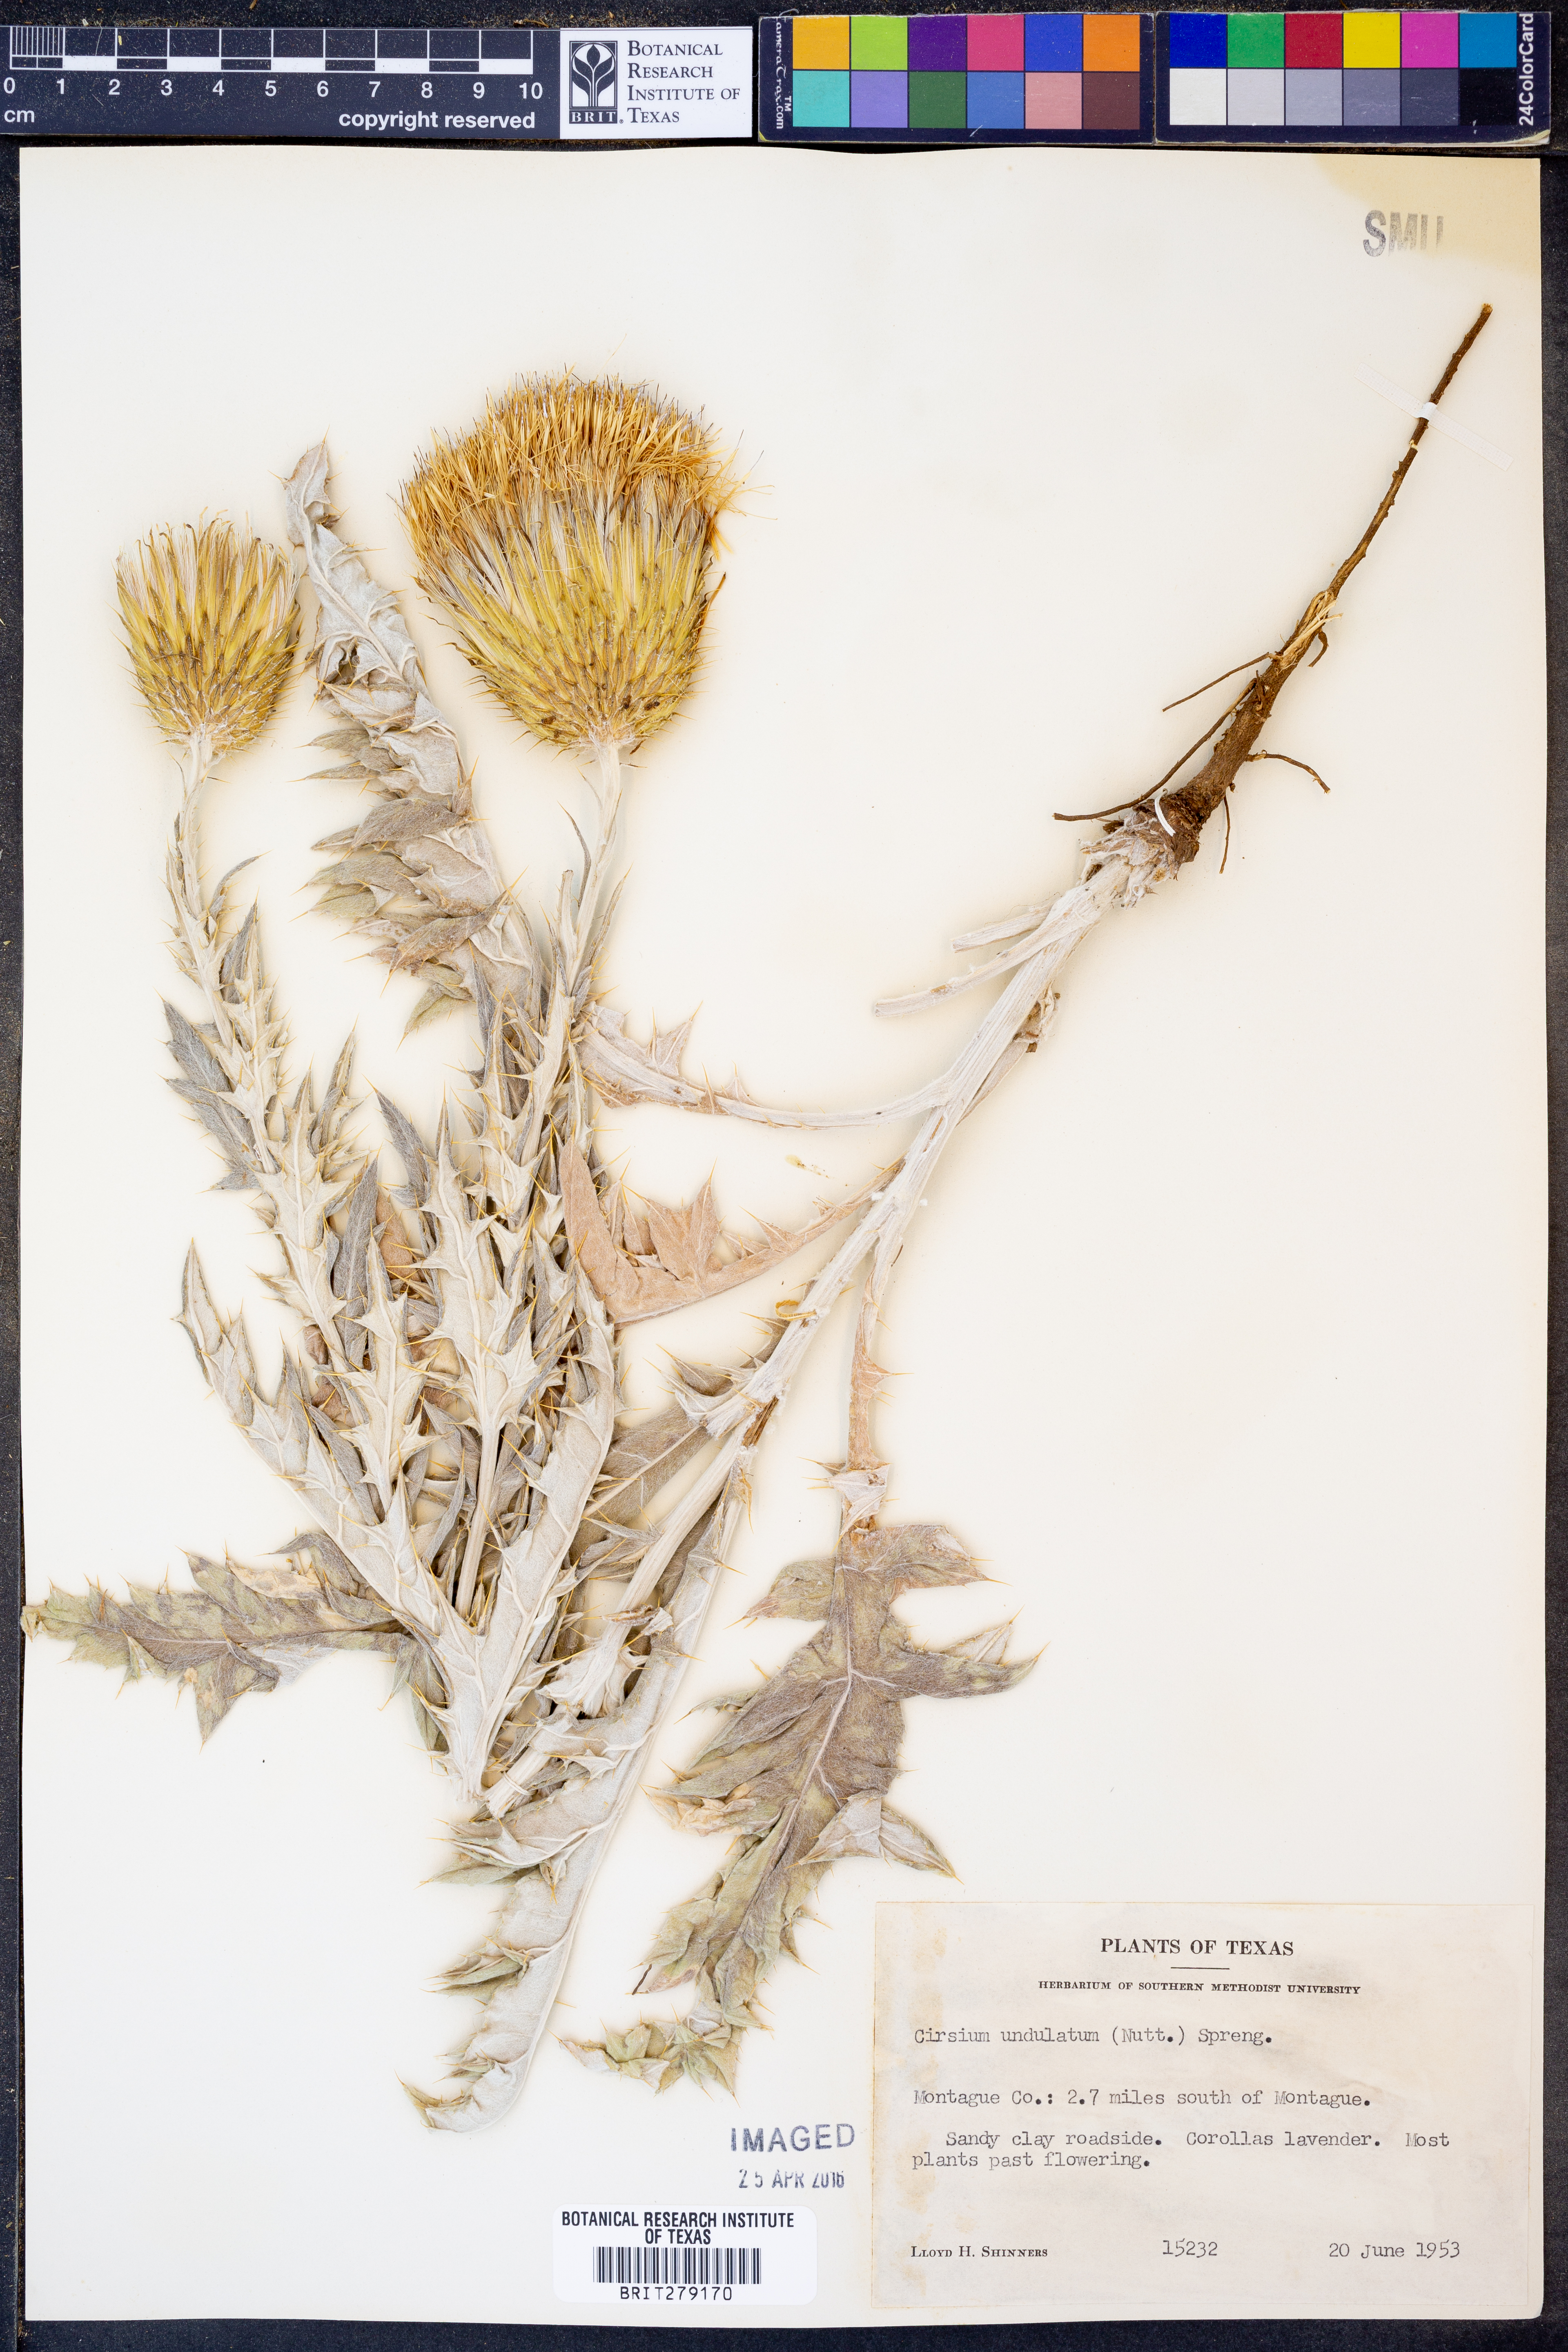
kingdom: Plantae
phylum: Tracheophyta
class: Magnoliopsida
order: Asterales
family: Asteraceae
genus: Cirsium
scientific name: Cirsium undulatum
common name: Pasture thistle
